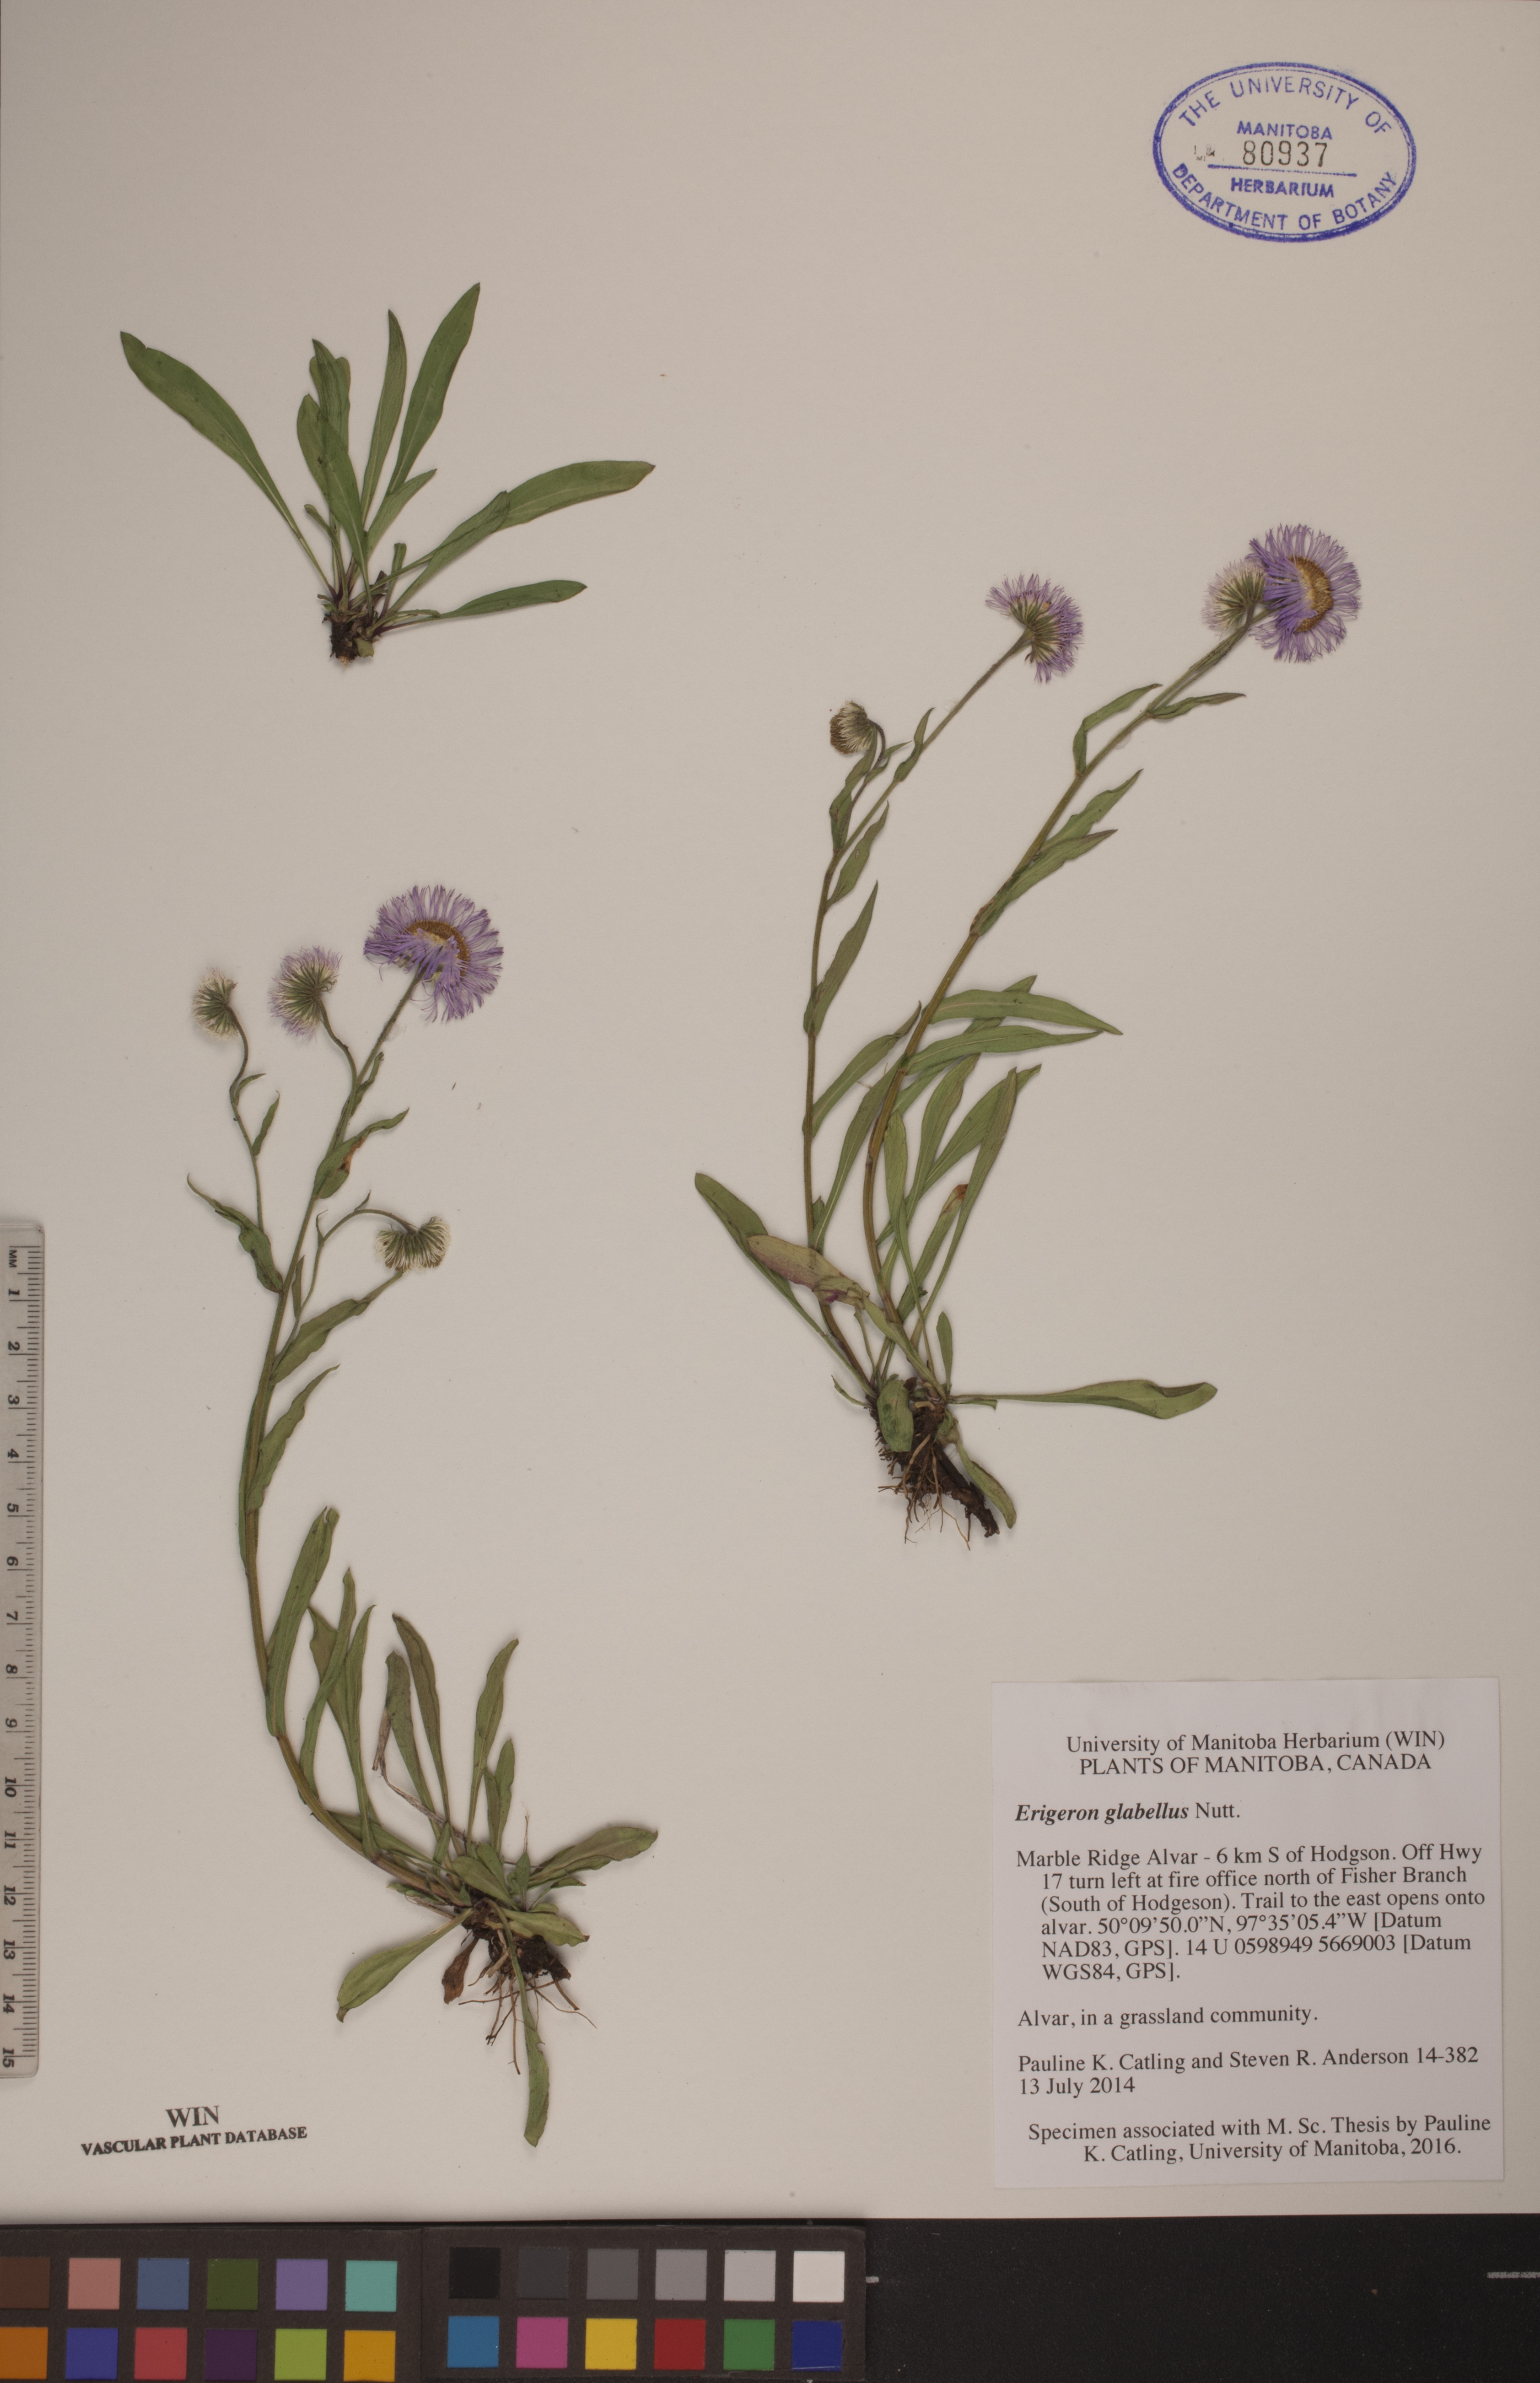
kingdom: Plantae
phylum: Tracheophyta
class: Magnoliopsida
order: Asterales
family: Asteraceae
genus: Erigeron
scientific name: Erigeron glabellus
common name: Smooth fleabane
